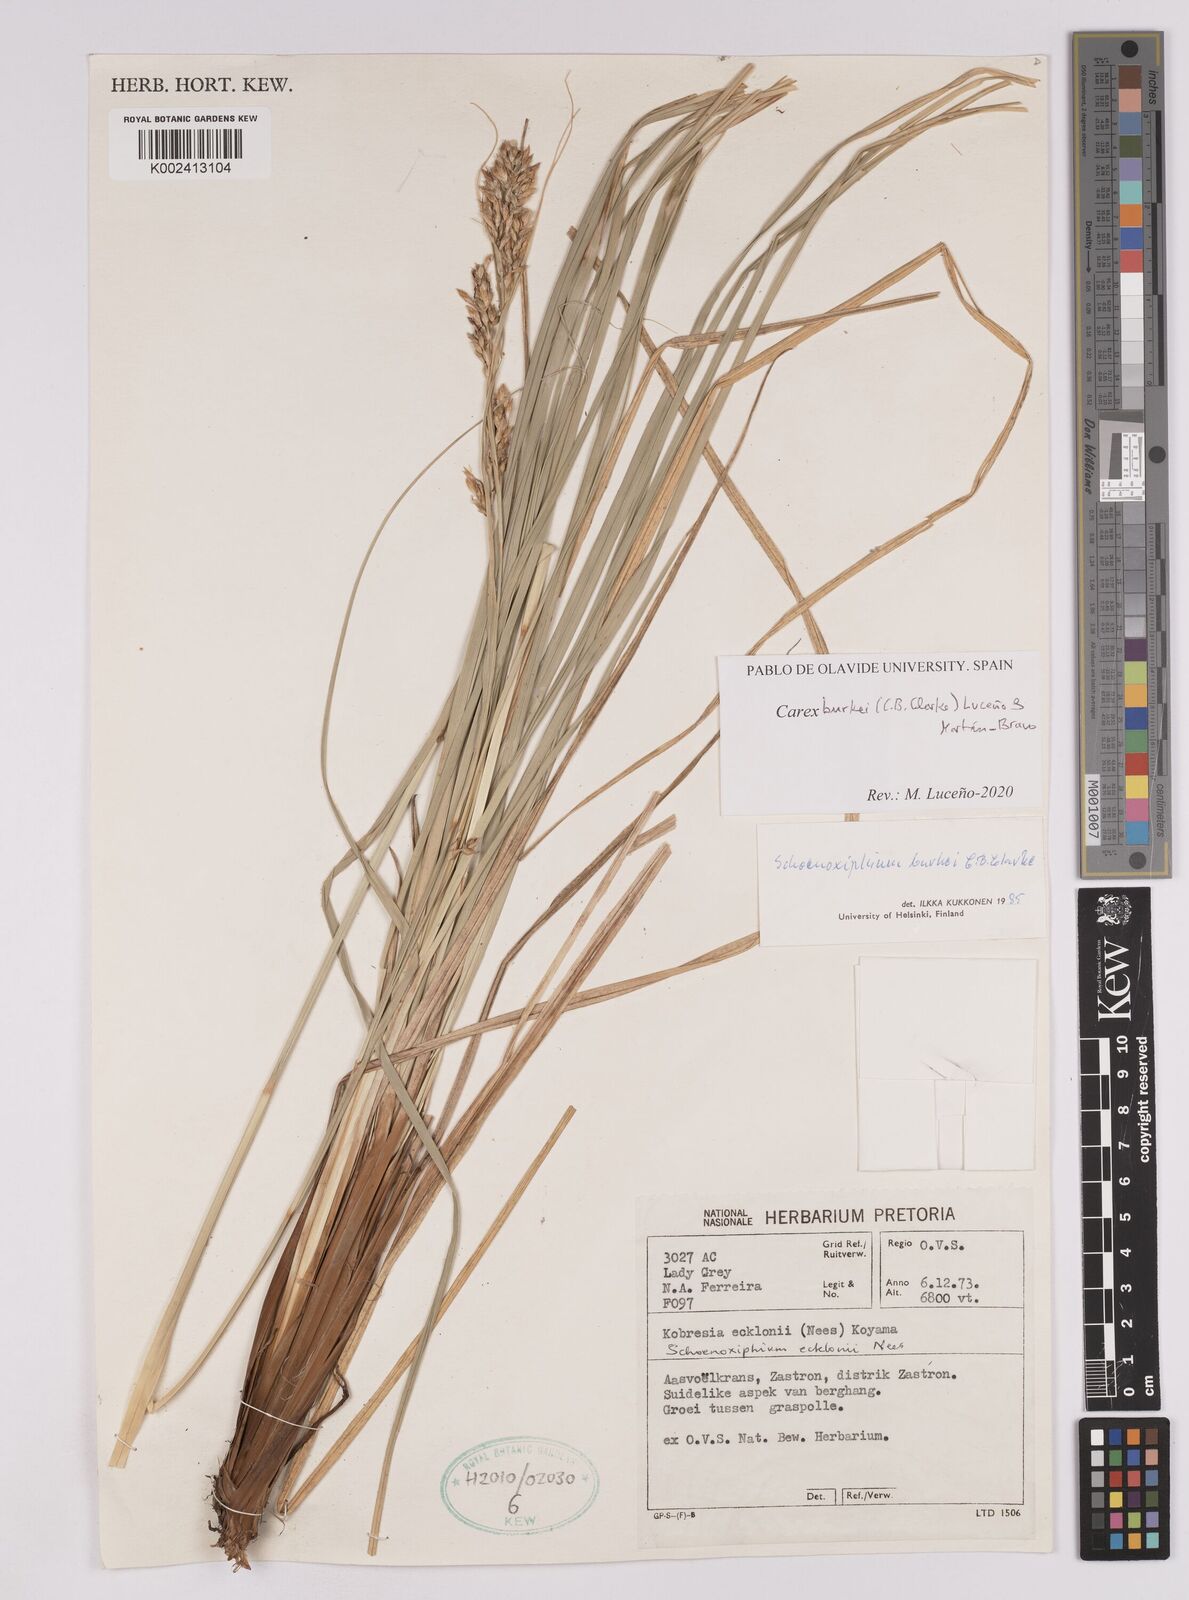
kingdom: Plantae
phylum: Tracheophyta
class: Liliopsida
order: Poales
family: Cyperaceae
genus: Carex
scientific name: Carex burkei
